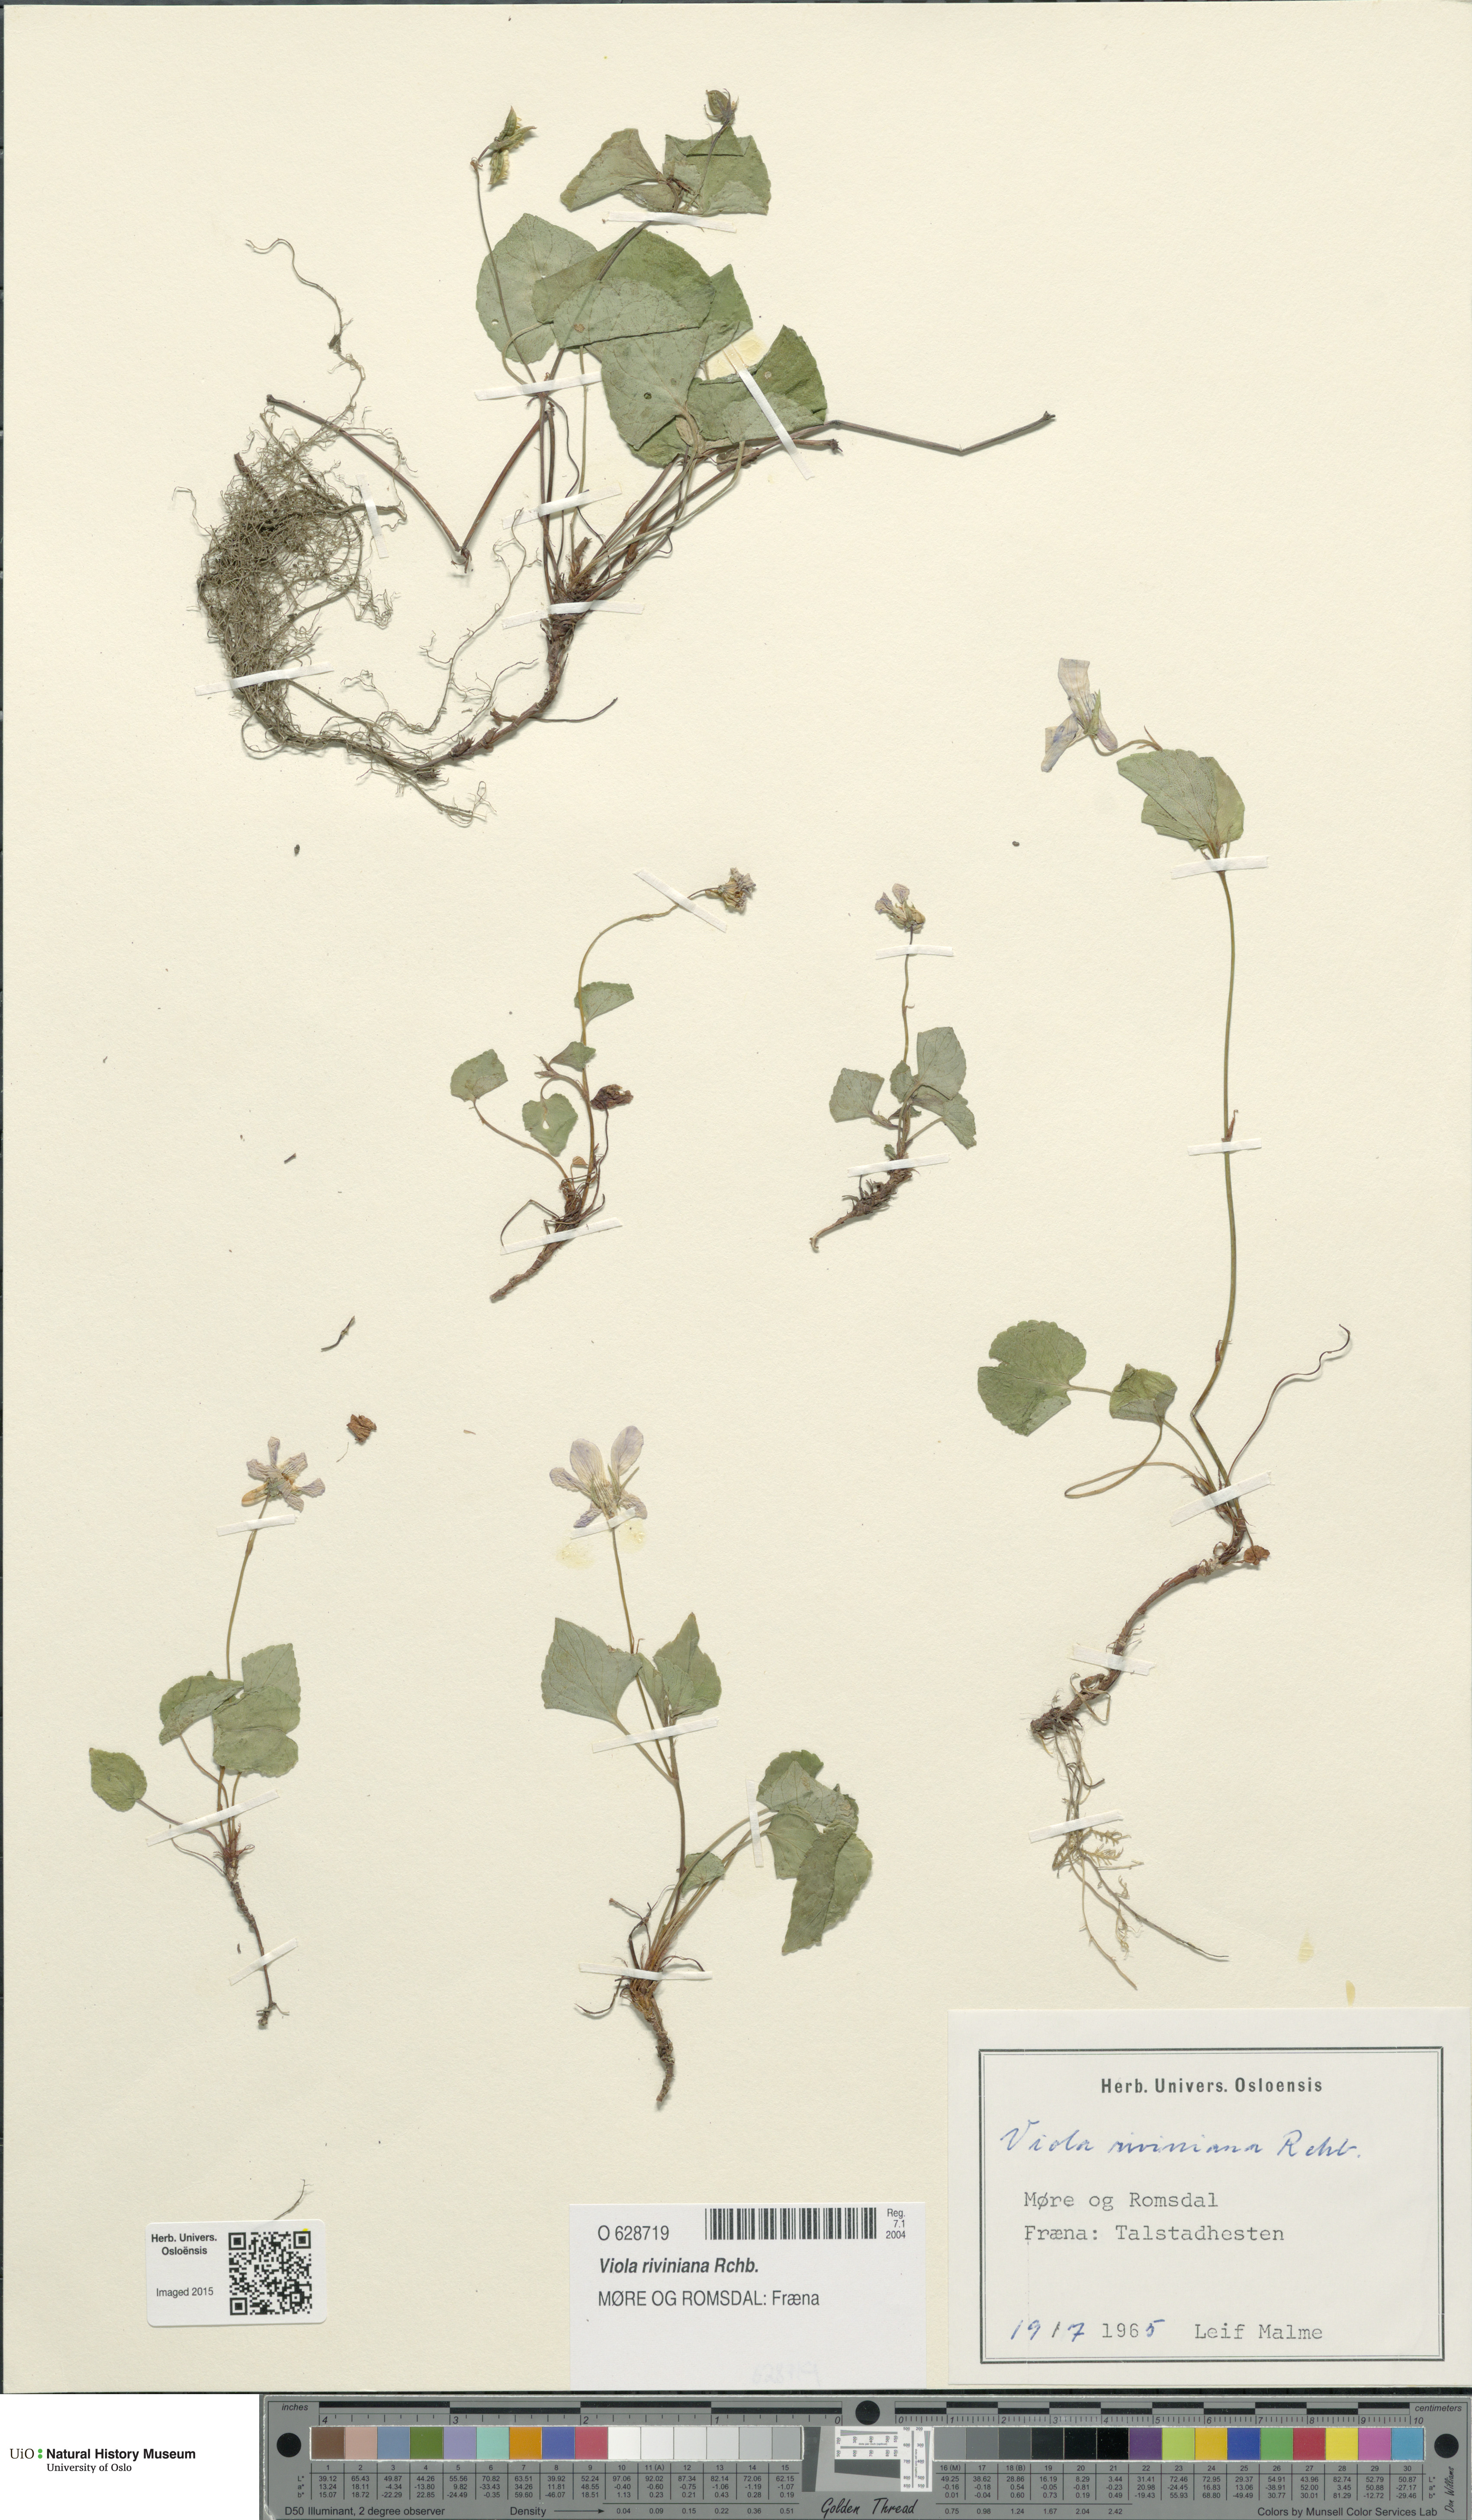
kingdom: Plantae
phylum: Tracheophyta
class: Magnoliopsida
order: Malpighiales
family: Violaceae
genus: Viola
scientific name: Viola riviniana
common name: Common dog-violet
